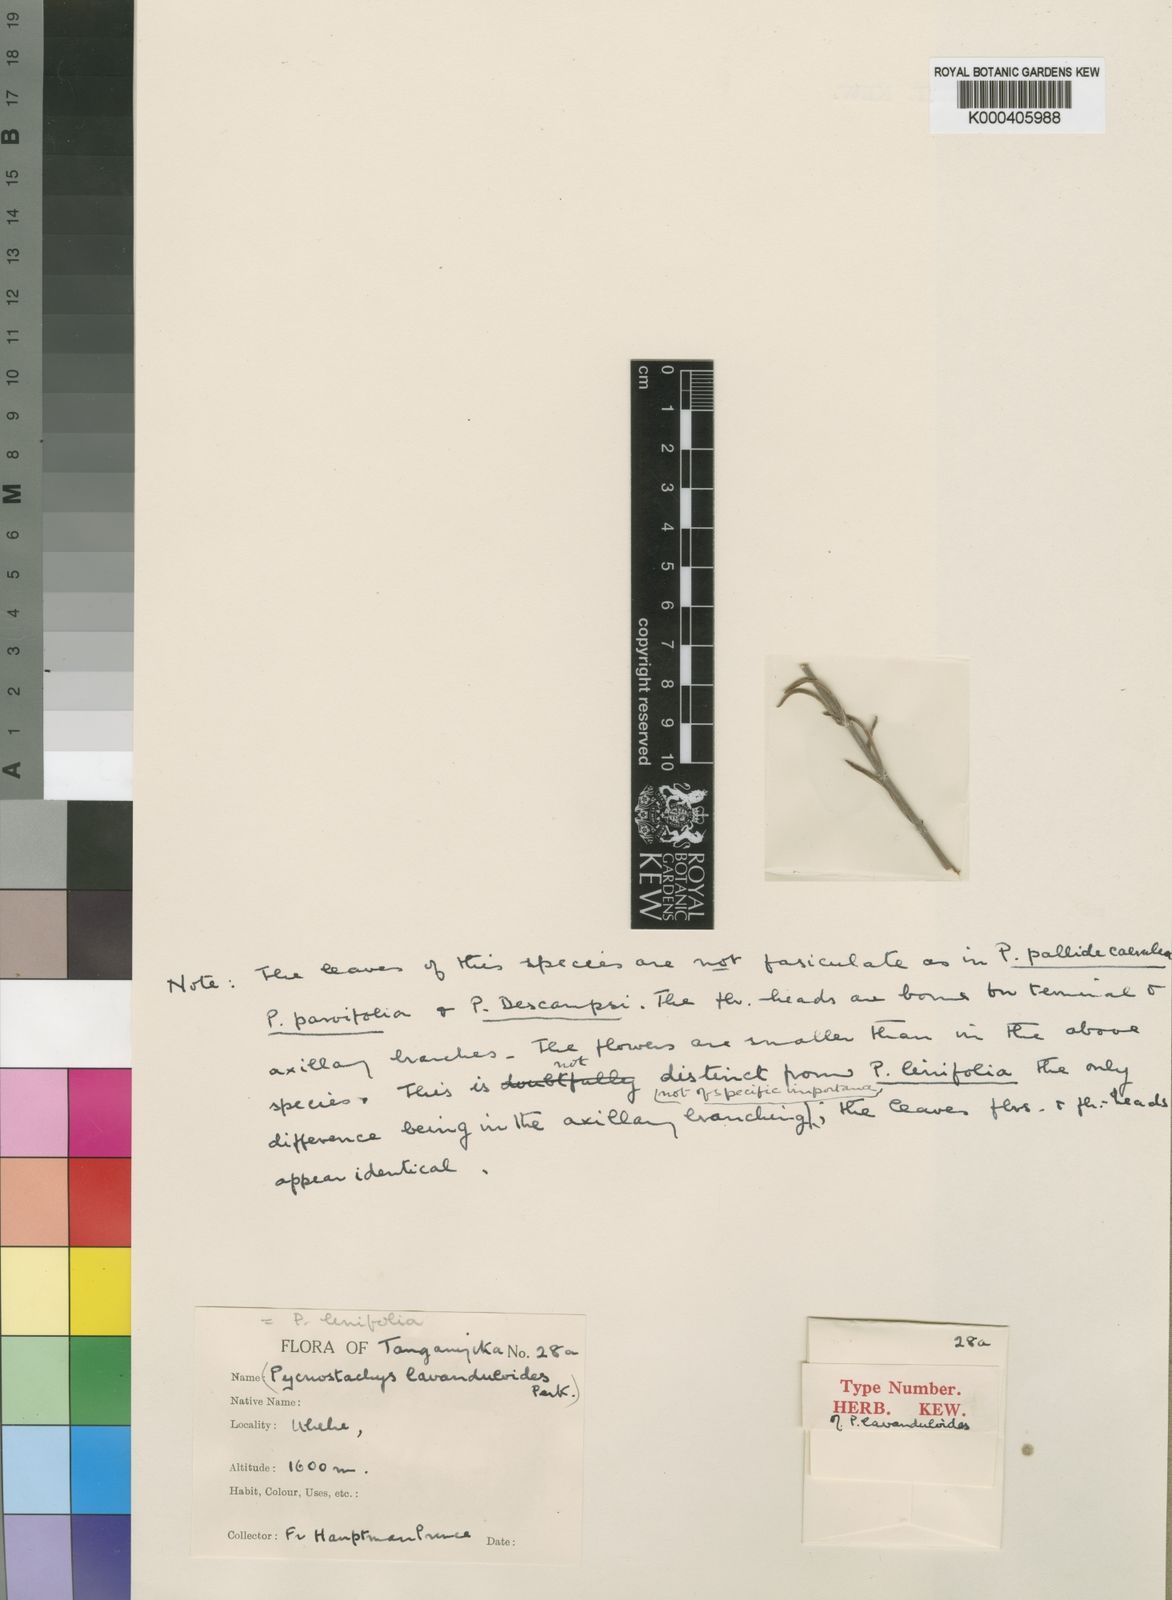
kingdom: Plantae
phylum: Tracheophyta
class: Magnoliopsida
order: Lamiales
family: Lamiaceae
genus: Coleus
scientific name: Coleus Pycnostachys parvifolia
